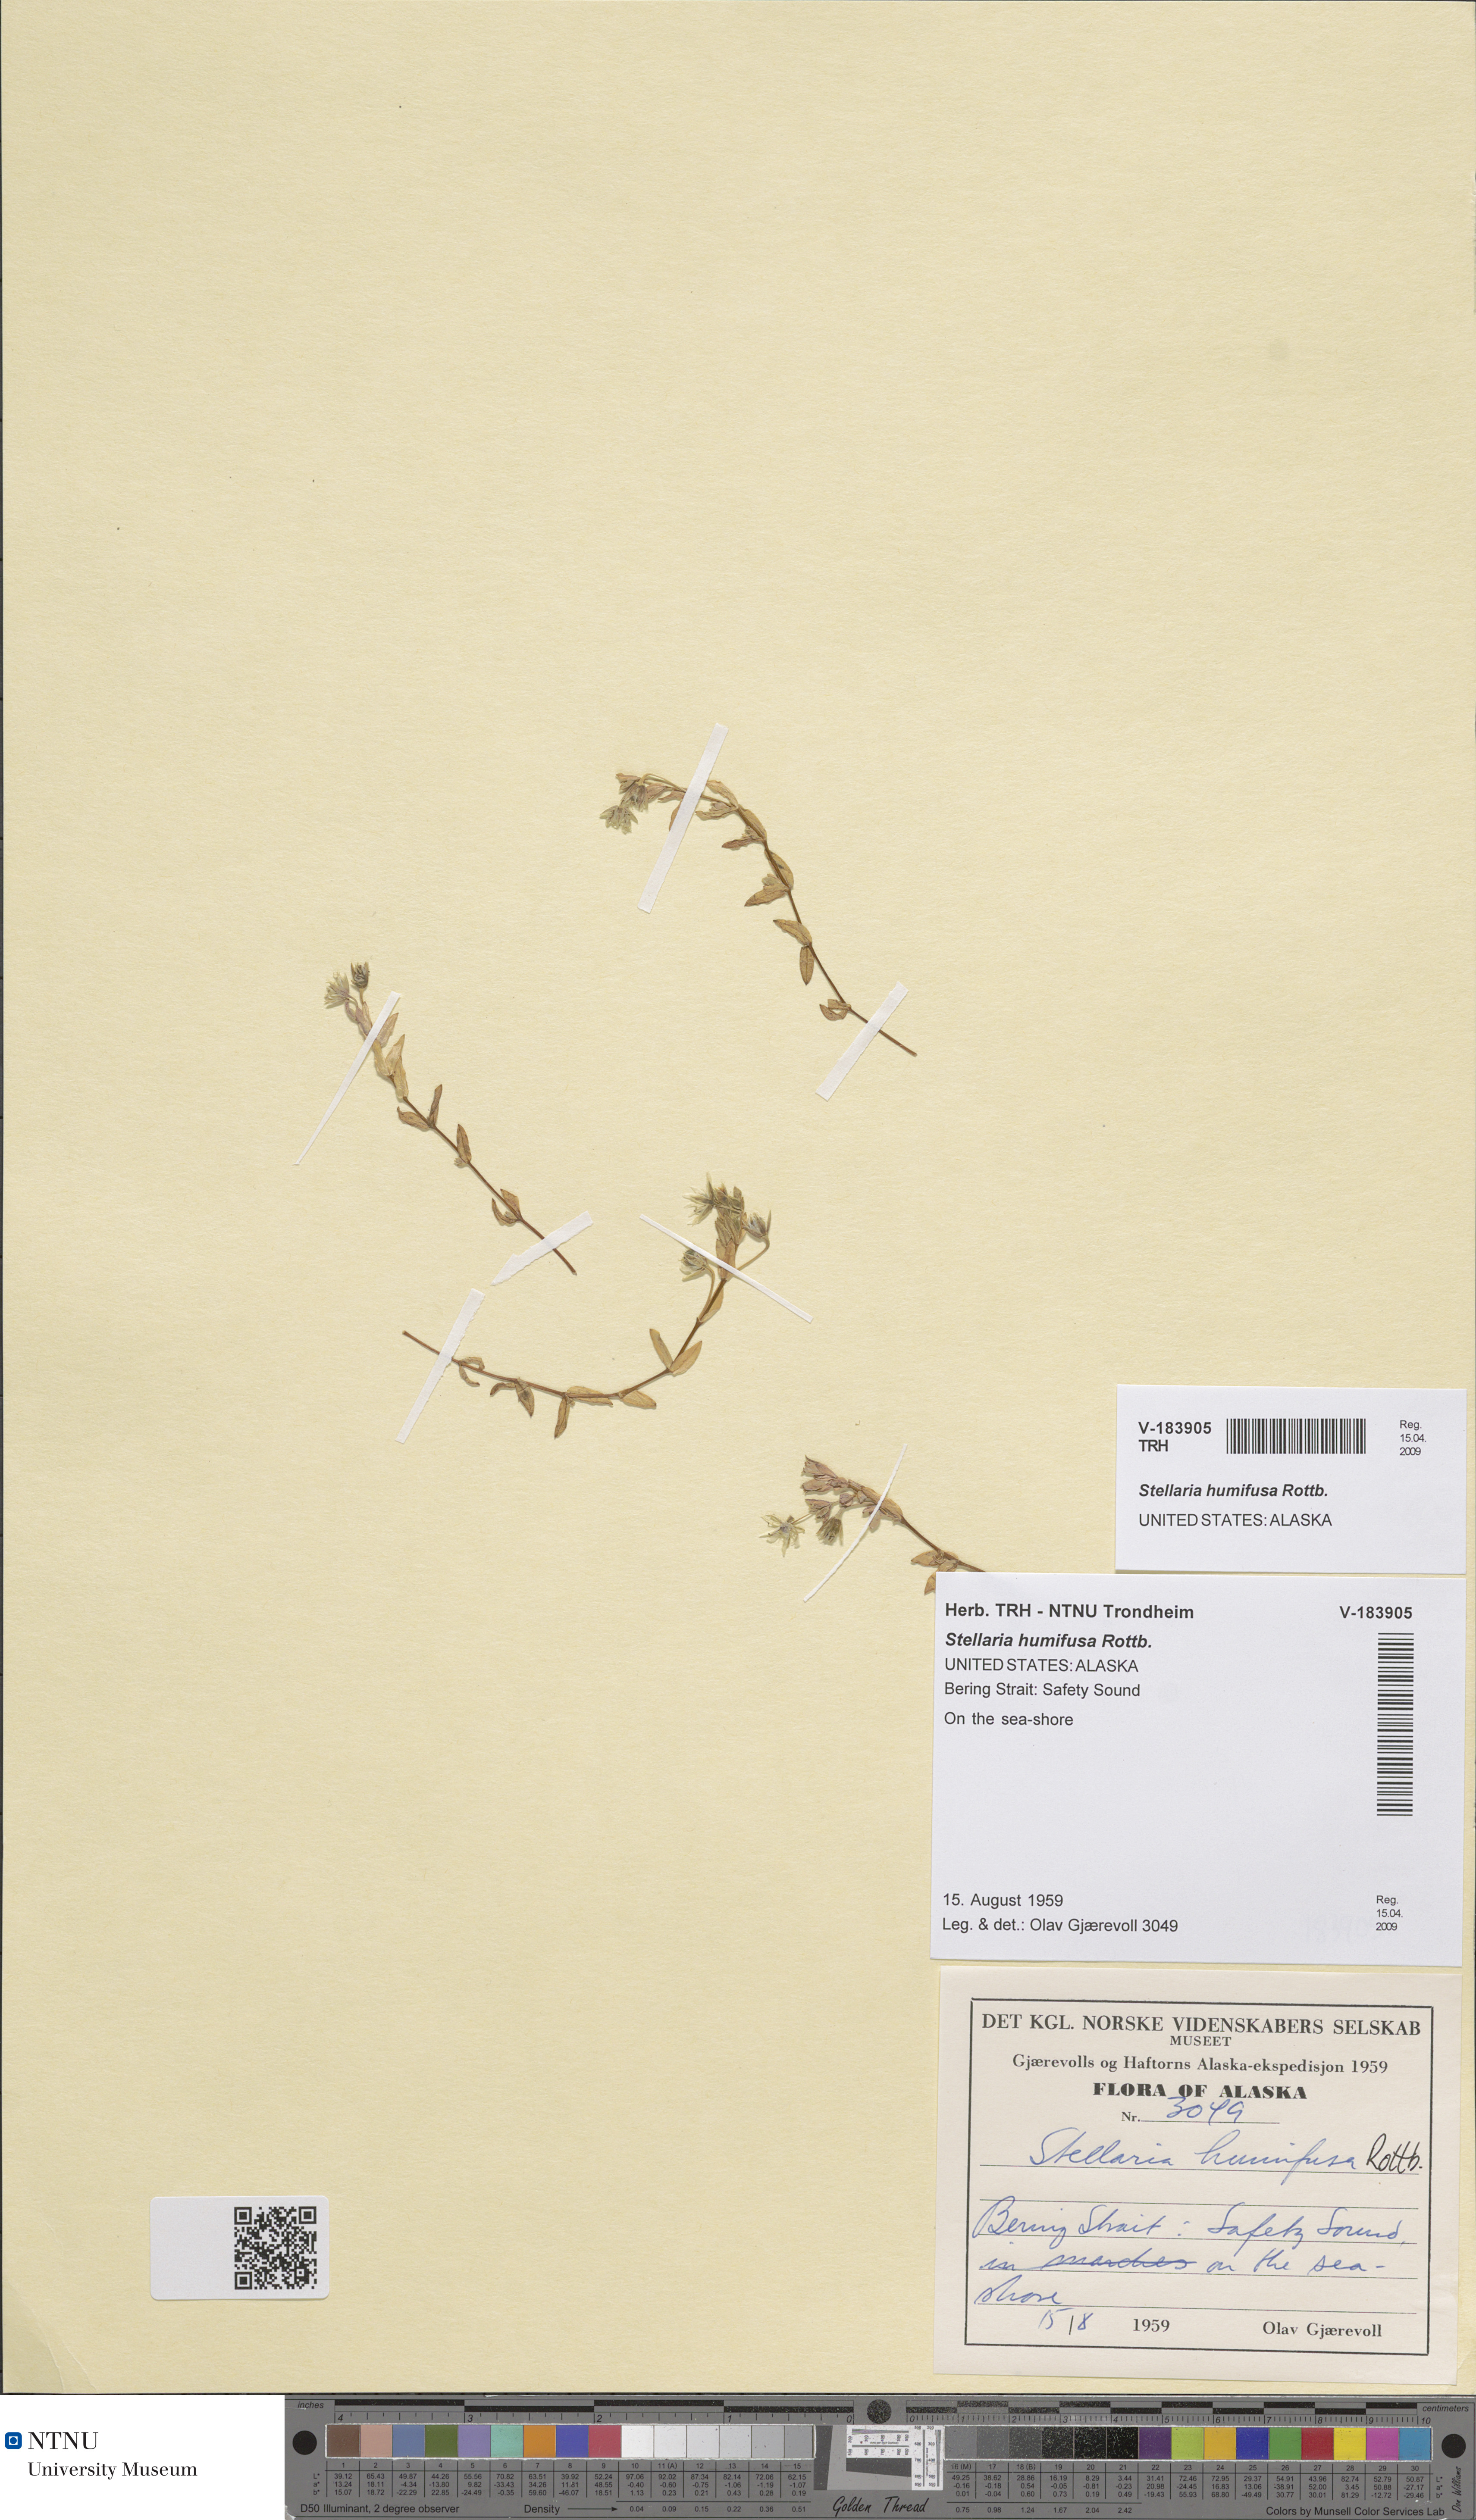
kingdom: Plantae
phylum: Tracheophyta
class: Magnoliopsida
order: Caryophyllales
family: Caryophyllaceae
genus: Stellaria
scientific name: Stellaria humifusa
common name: Creeping starwort
